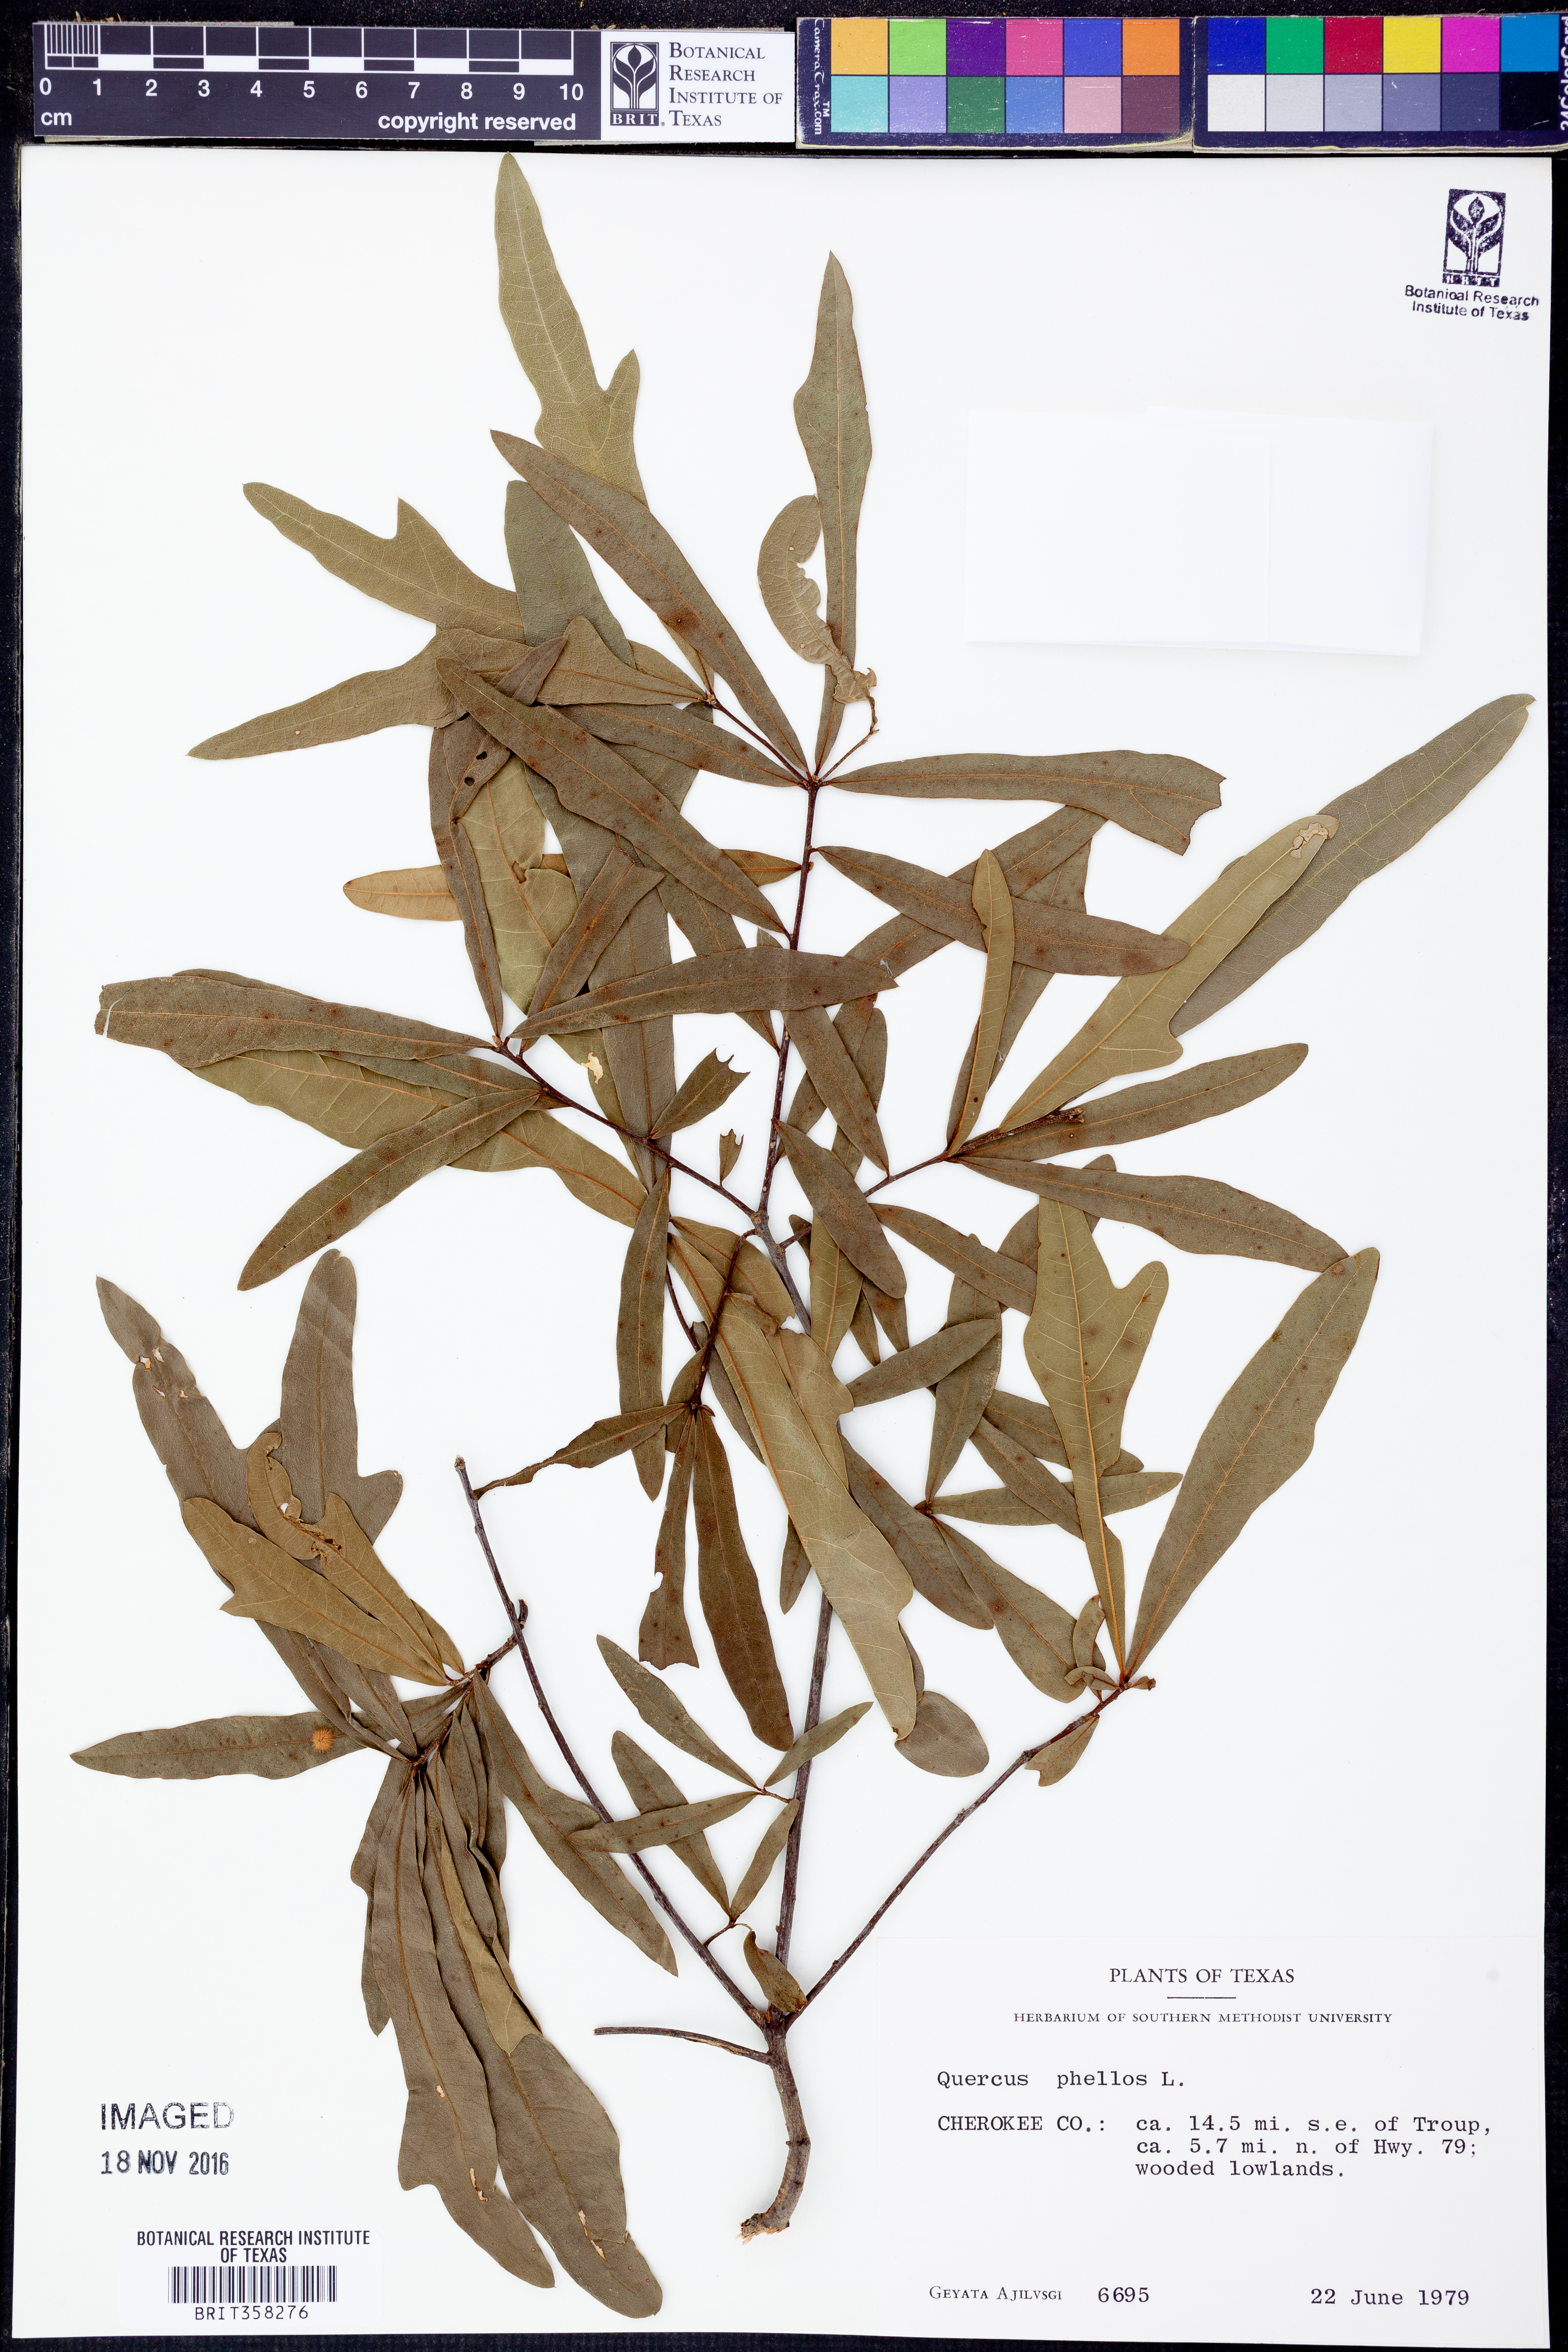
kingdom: Plantae
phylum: Tracheophyta
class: Magnoliopsida
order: Fagales
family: Fagaceae
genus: Quercus
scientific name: Quercus phellos
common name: Willow oak
